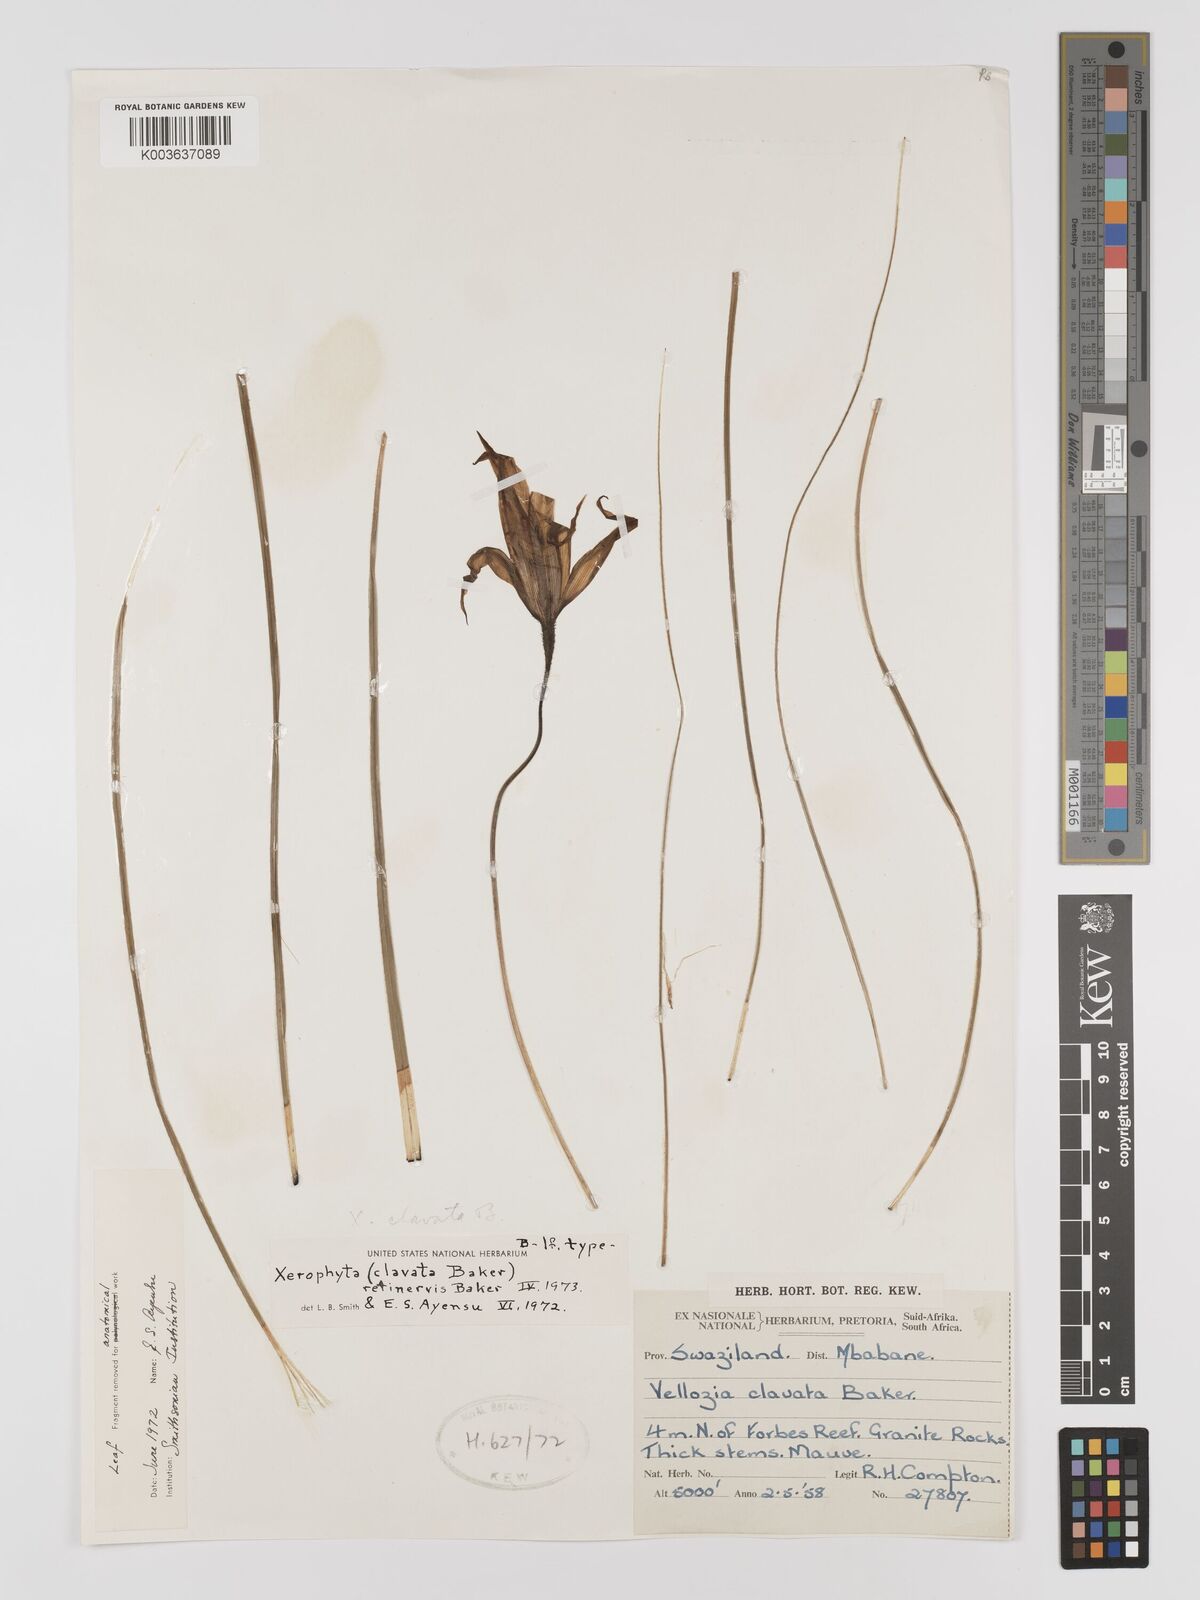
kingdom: Plantae
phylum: Tracheophyta
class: Liliopsida
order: Pandanales
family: Velloziaceae
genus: Xerophyta
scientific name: Xerophyta retinervis
